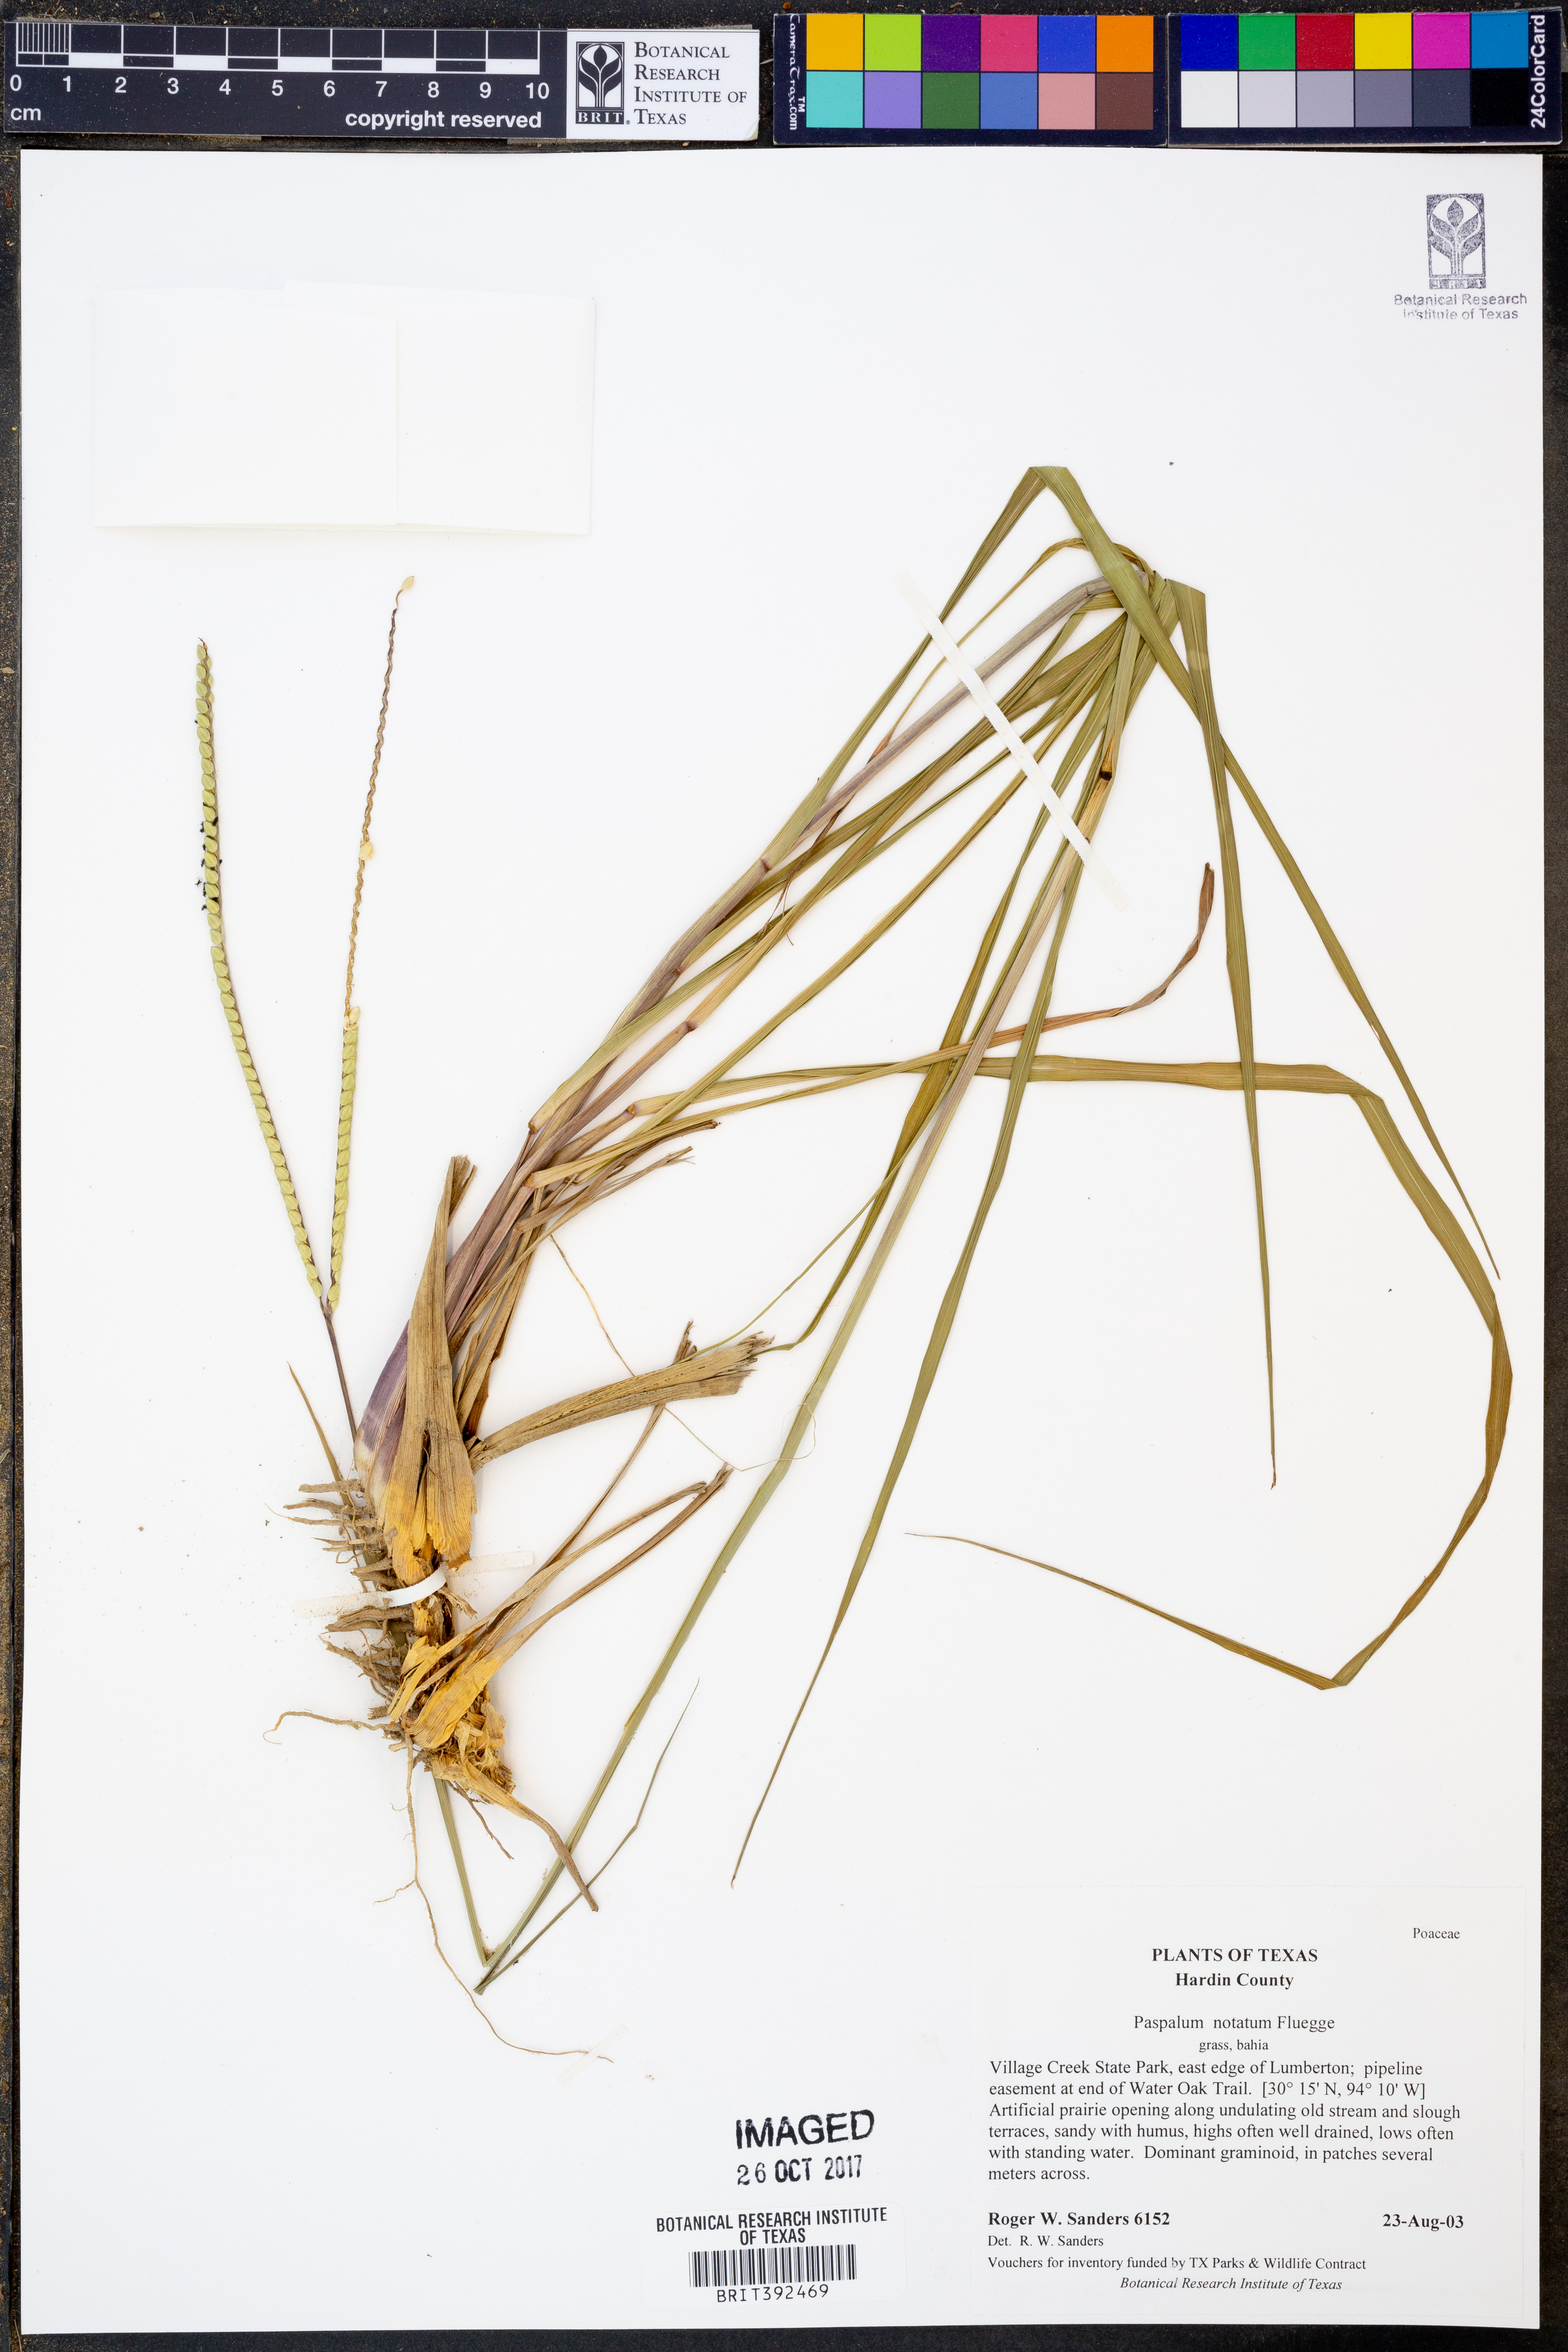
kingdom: Plantae
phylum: Tracheophyta
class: Liliopsida
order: Poales
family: Poaceae
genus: Paspalum
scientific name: Paspalum notatum
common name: Bahiagrass
